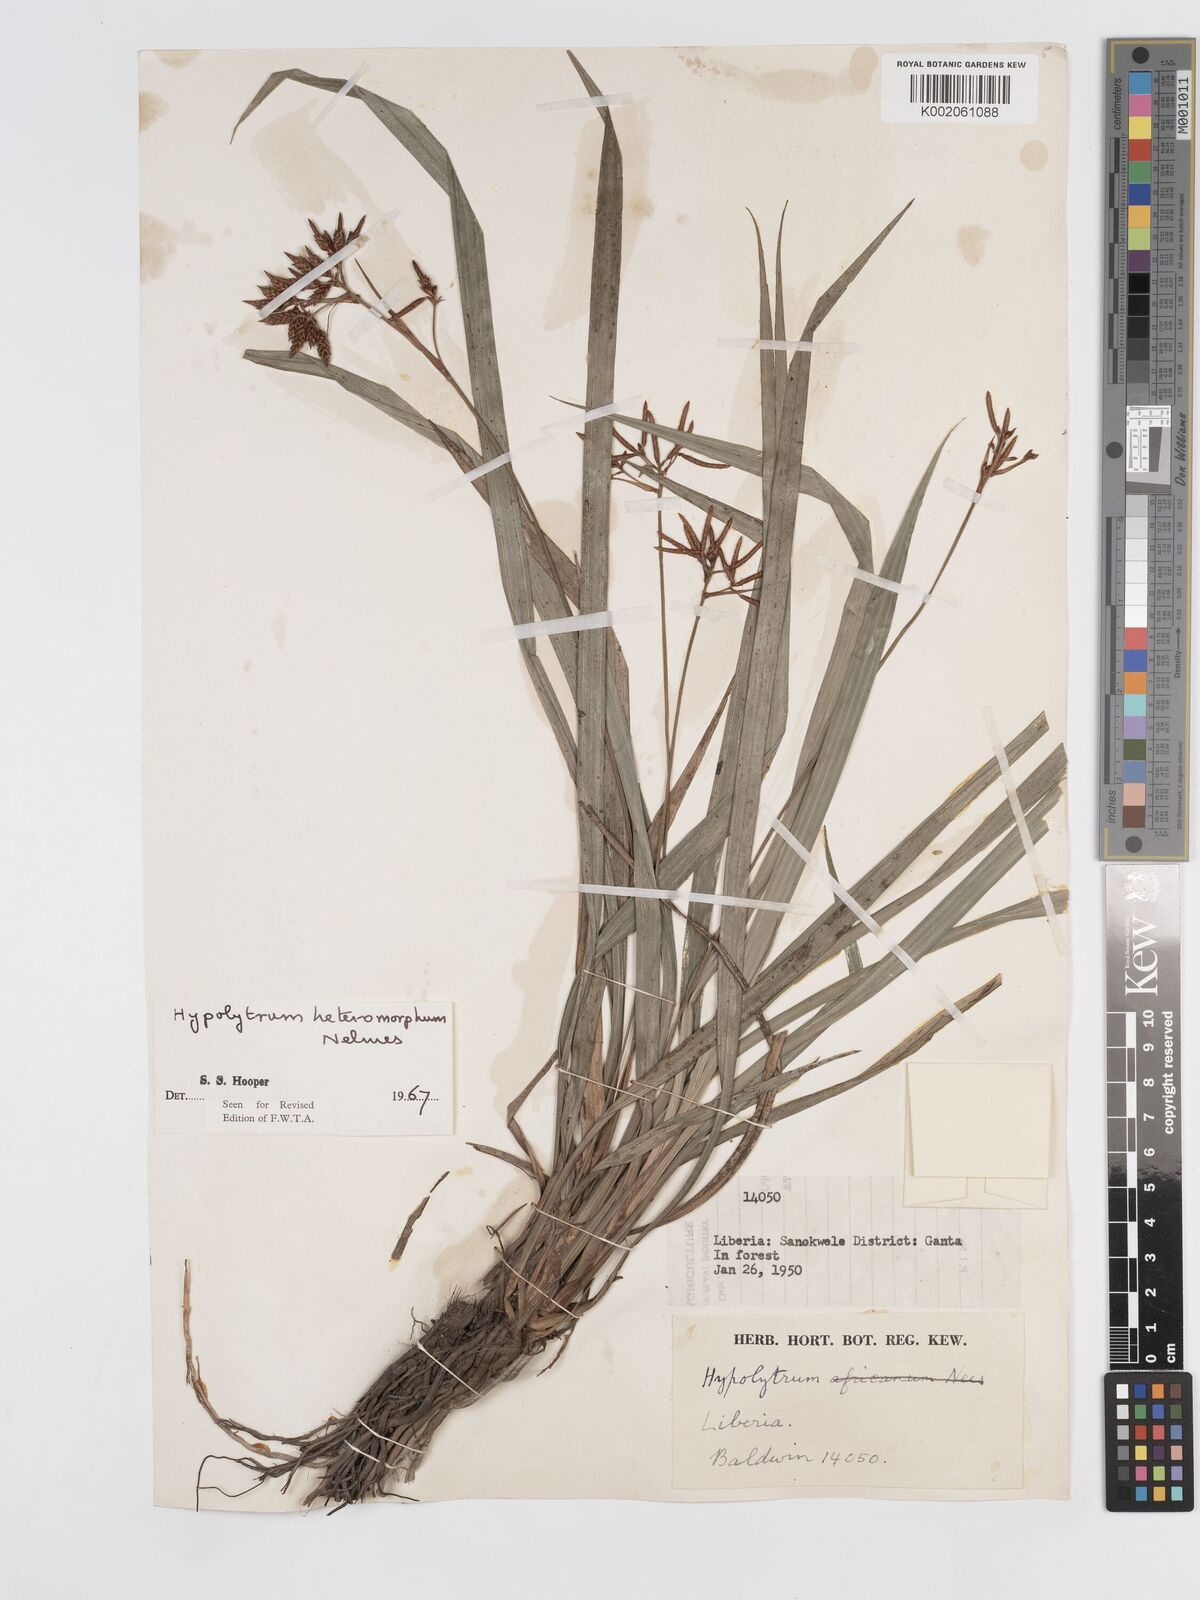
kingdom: Plantae
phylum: Tracheophyta
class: Liliopsida
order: Poales
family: Cyperaceae
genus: Hypolytrum
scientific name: Hypolytrum heteromorphum
